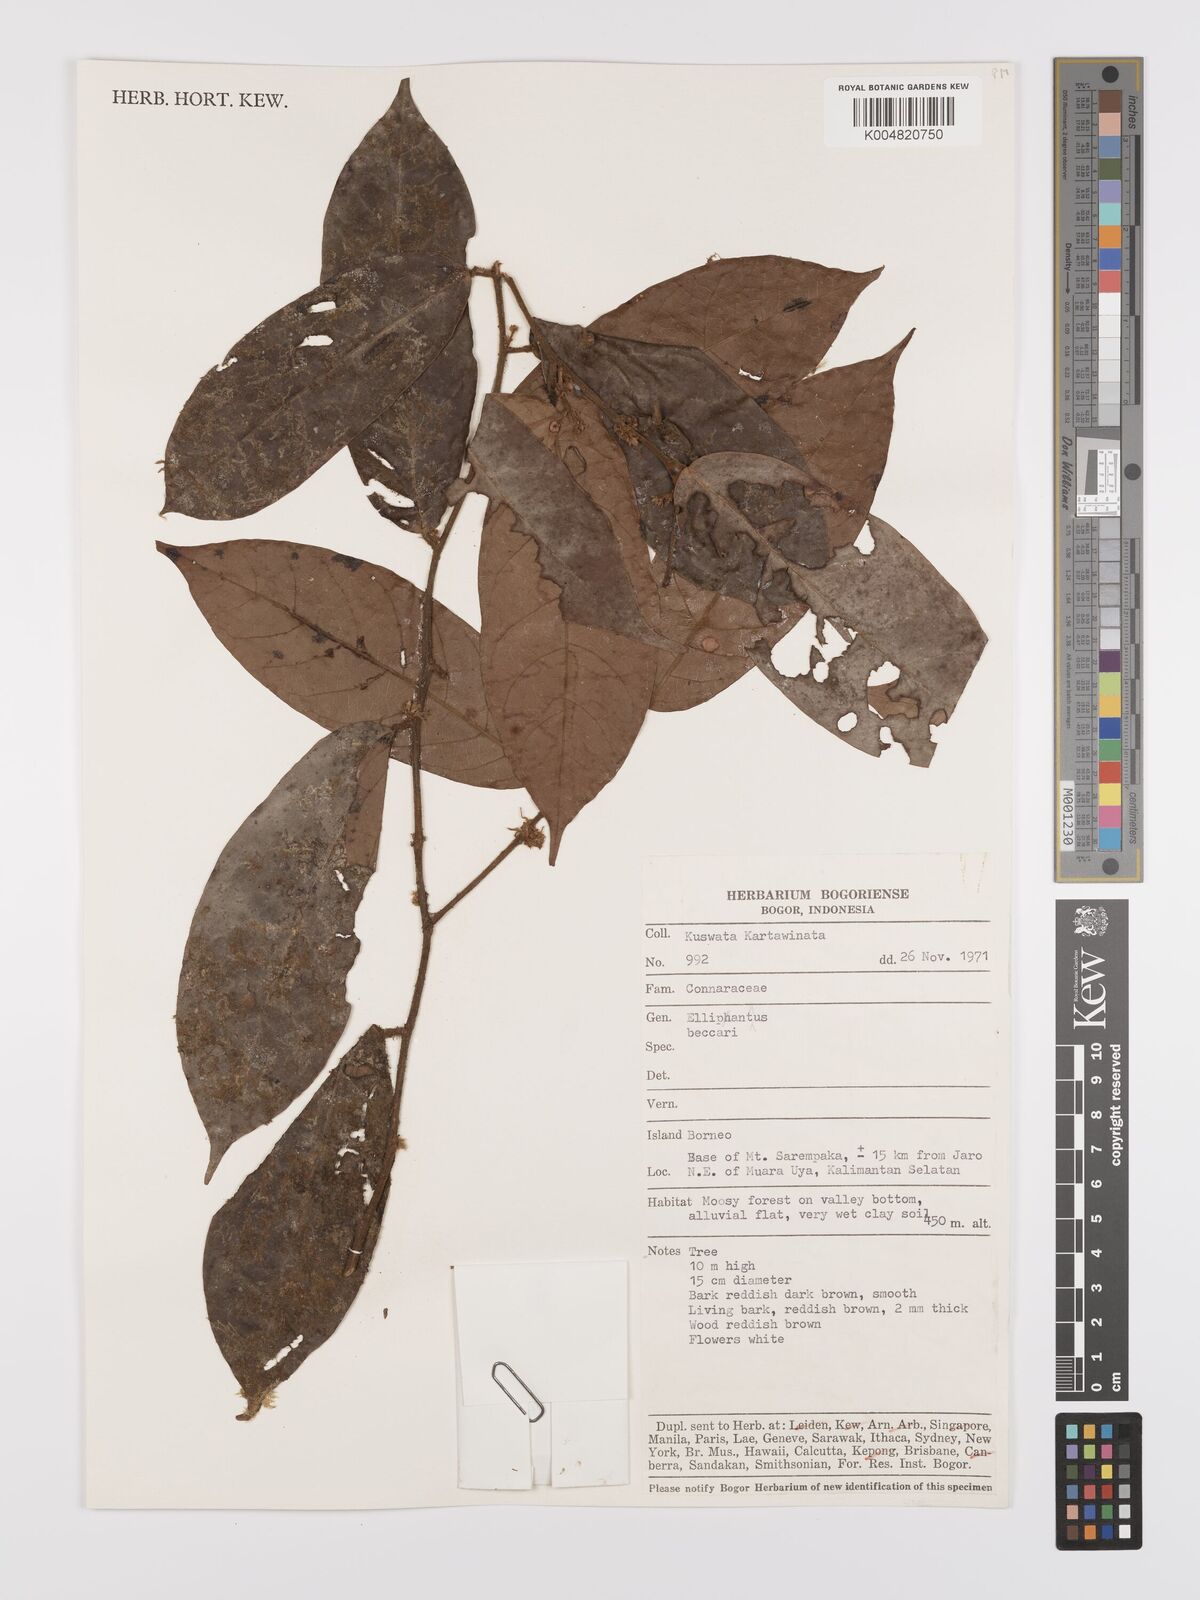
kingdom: Plantae
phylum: Tracheophyta
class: Magnoliopsida
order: Oxalidales
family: Connaraceae
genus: Ellipanthus
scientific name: Ellipanthus beccarii
